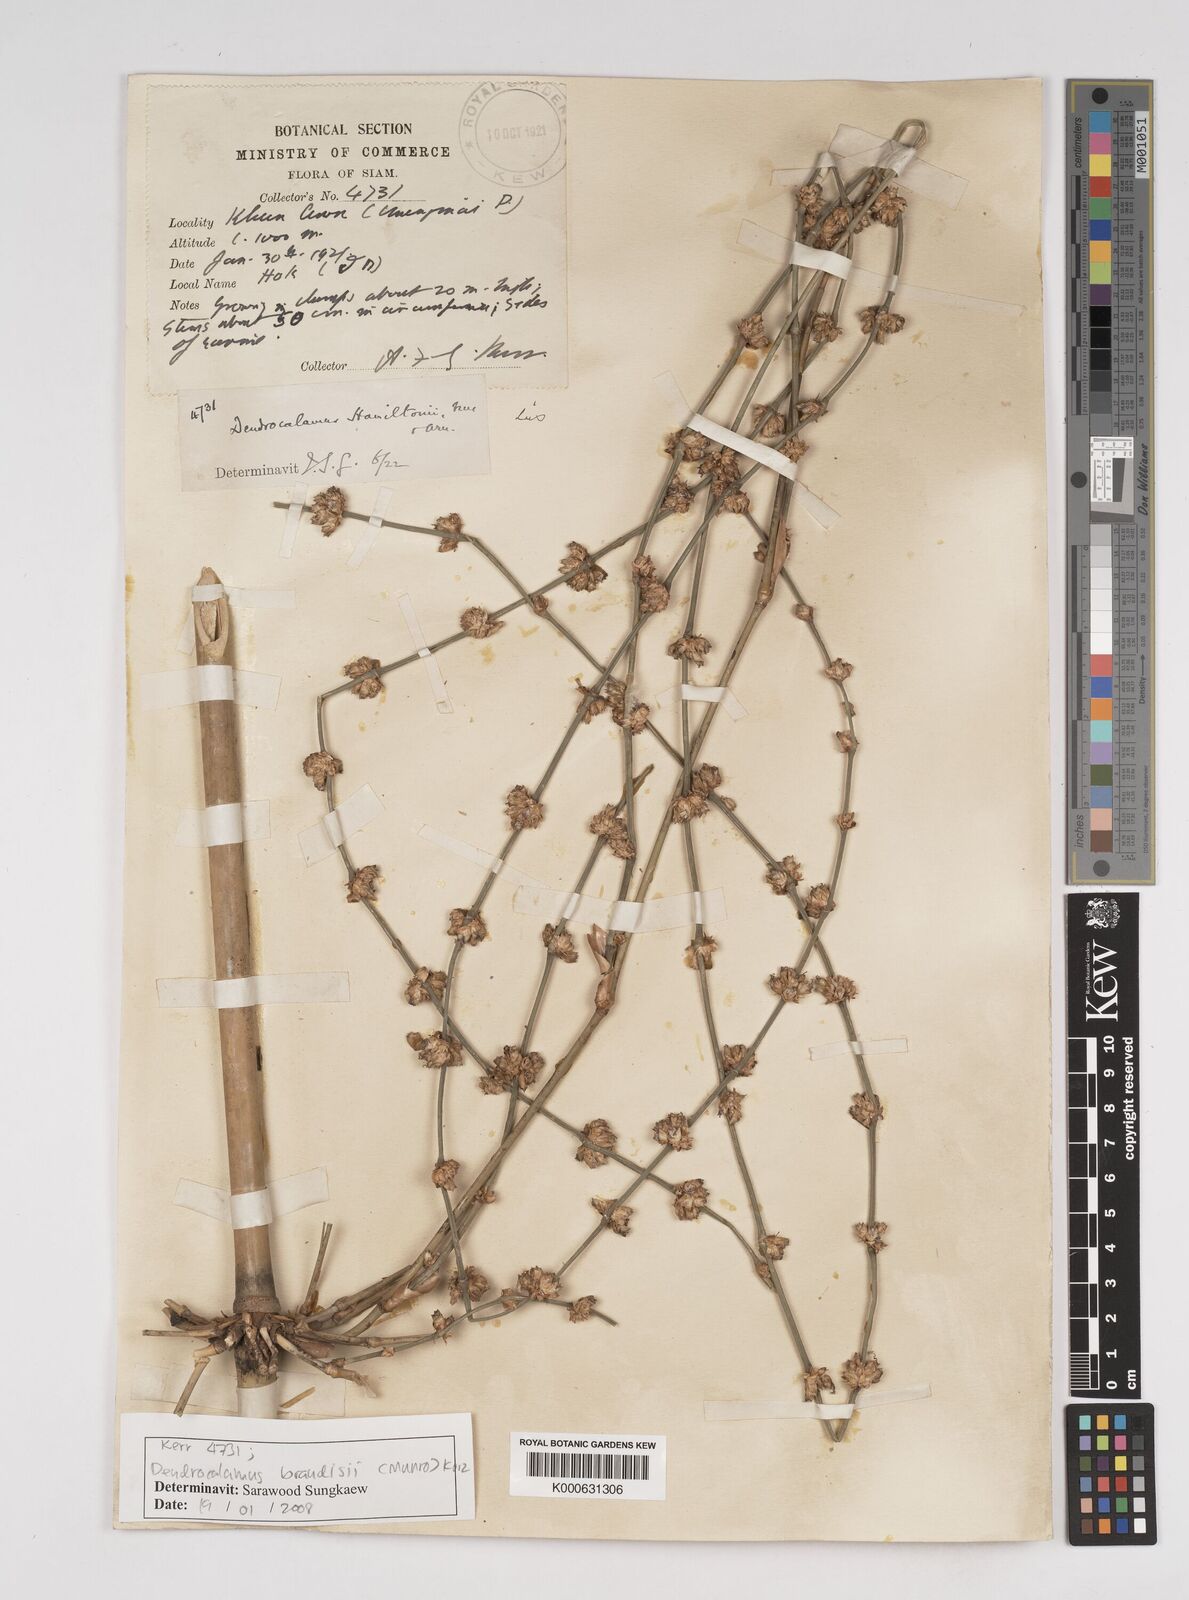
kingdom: Plantae
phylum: Tracheophyta
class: Liliopsida
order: Poales
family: Poaceae
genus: Dendrocalamus
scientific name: Dendrocalamus brandisii
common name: Velvetleaf bamboo
